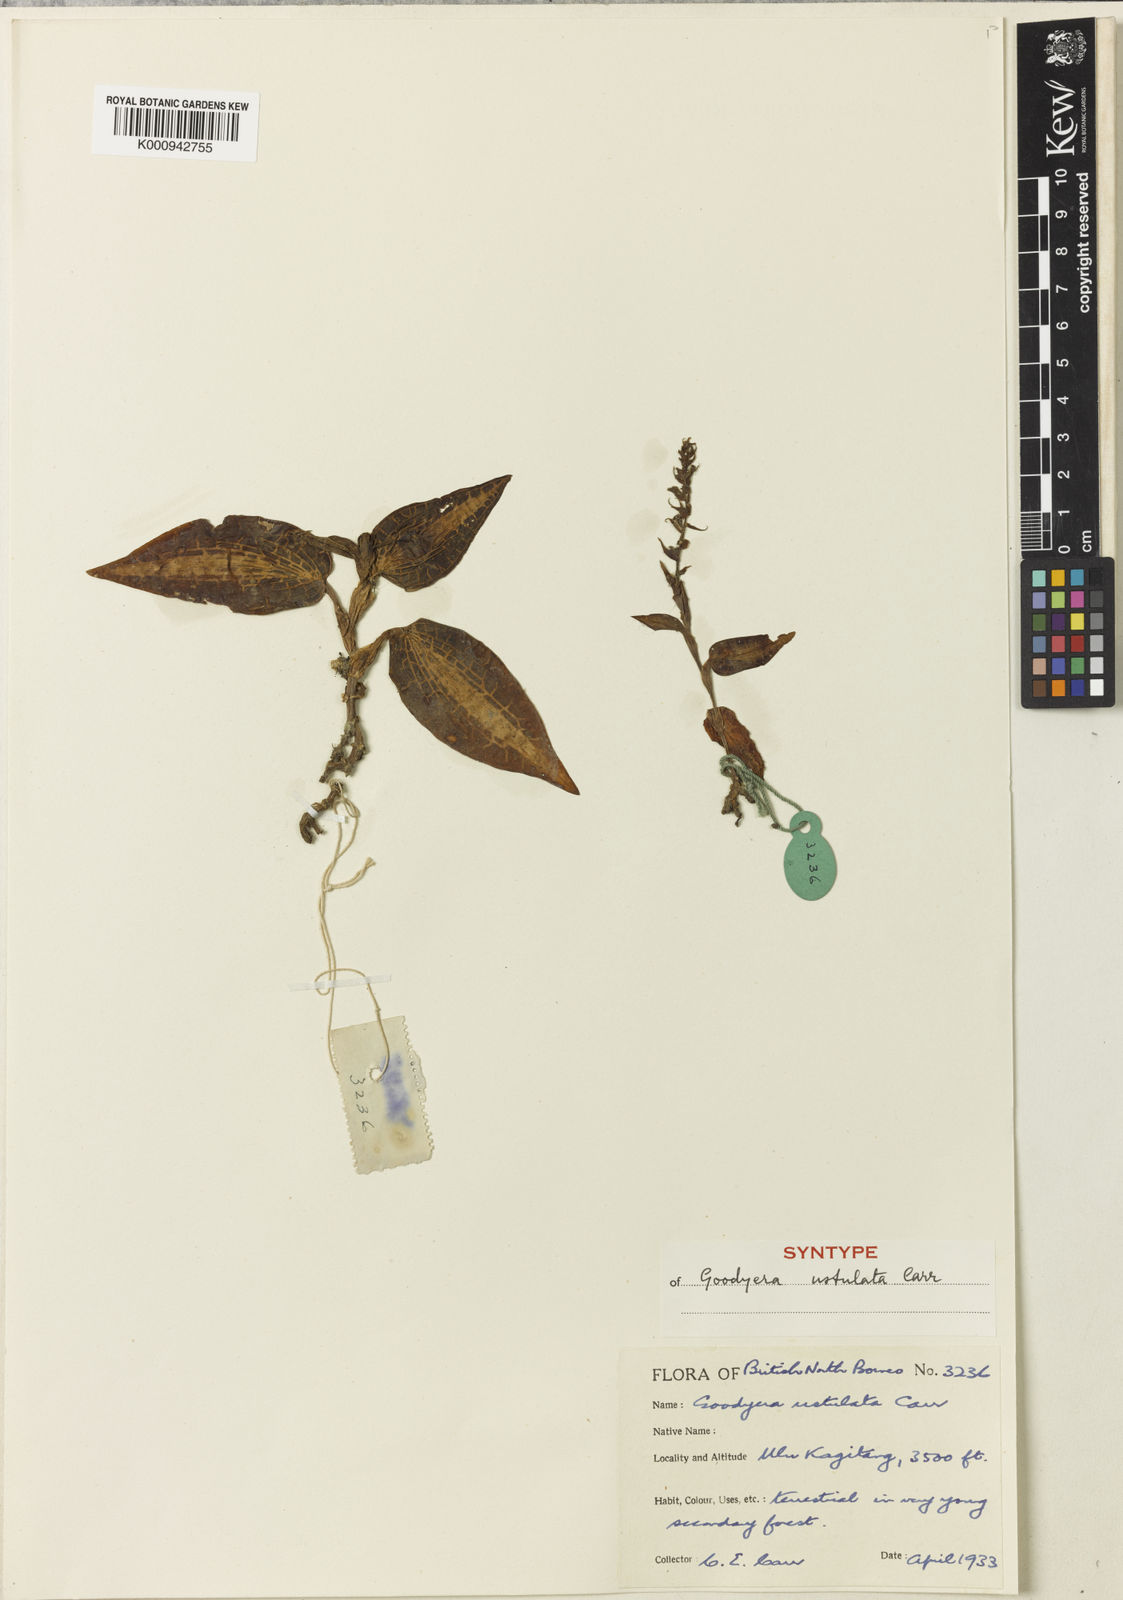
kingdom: Plantae
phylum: Tracheophyta
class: Liliopsida
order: Asparagales
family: Orchidaceae
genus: Goodyera
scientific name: Goodyera rostellata
